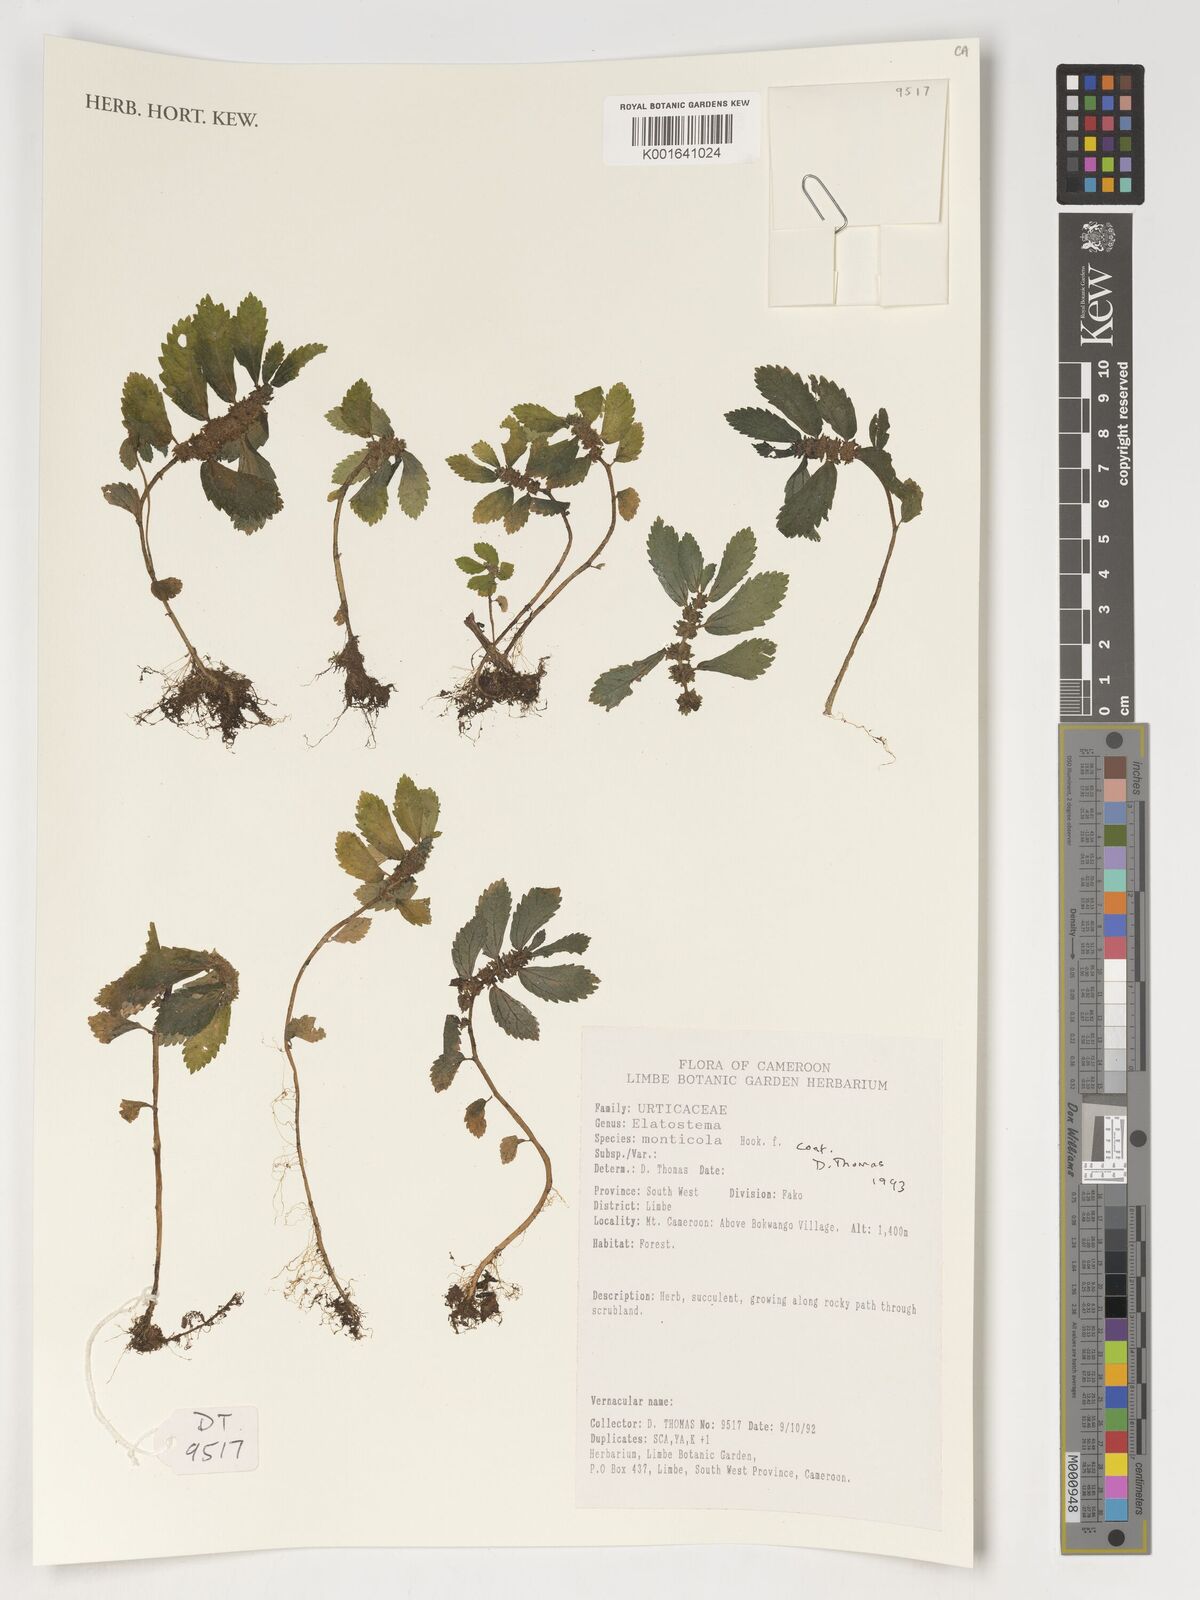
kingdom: Plantae
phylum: Tracheophyta
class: Magnoliopsida
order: Rosales
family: Urticaceae
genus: Elatostema
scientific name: Elatostema monticola
